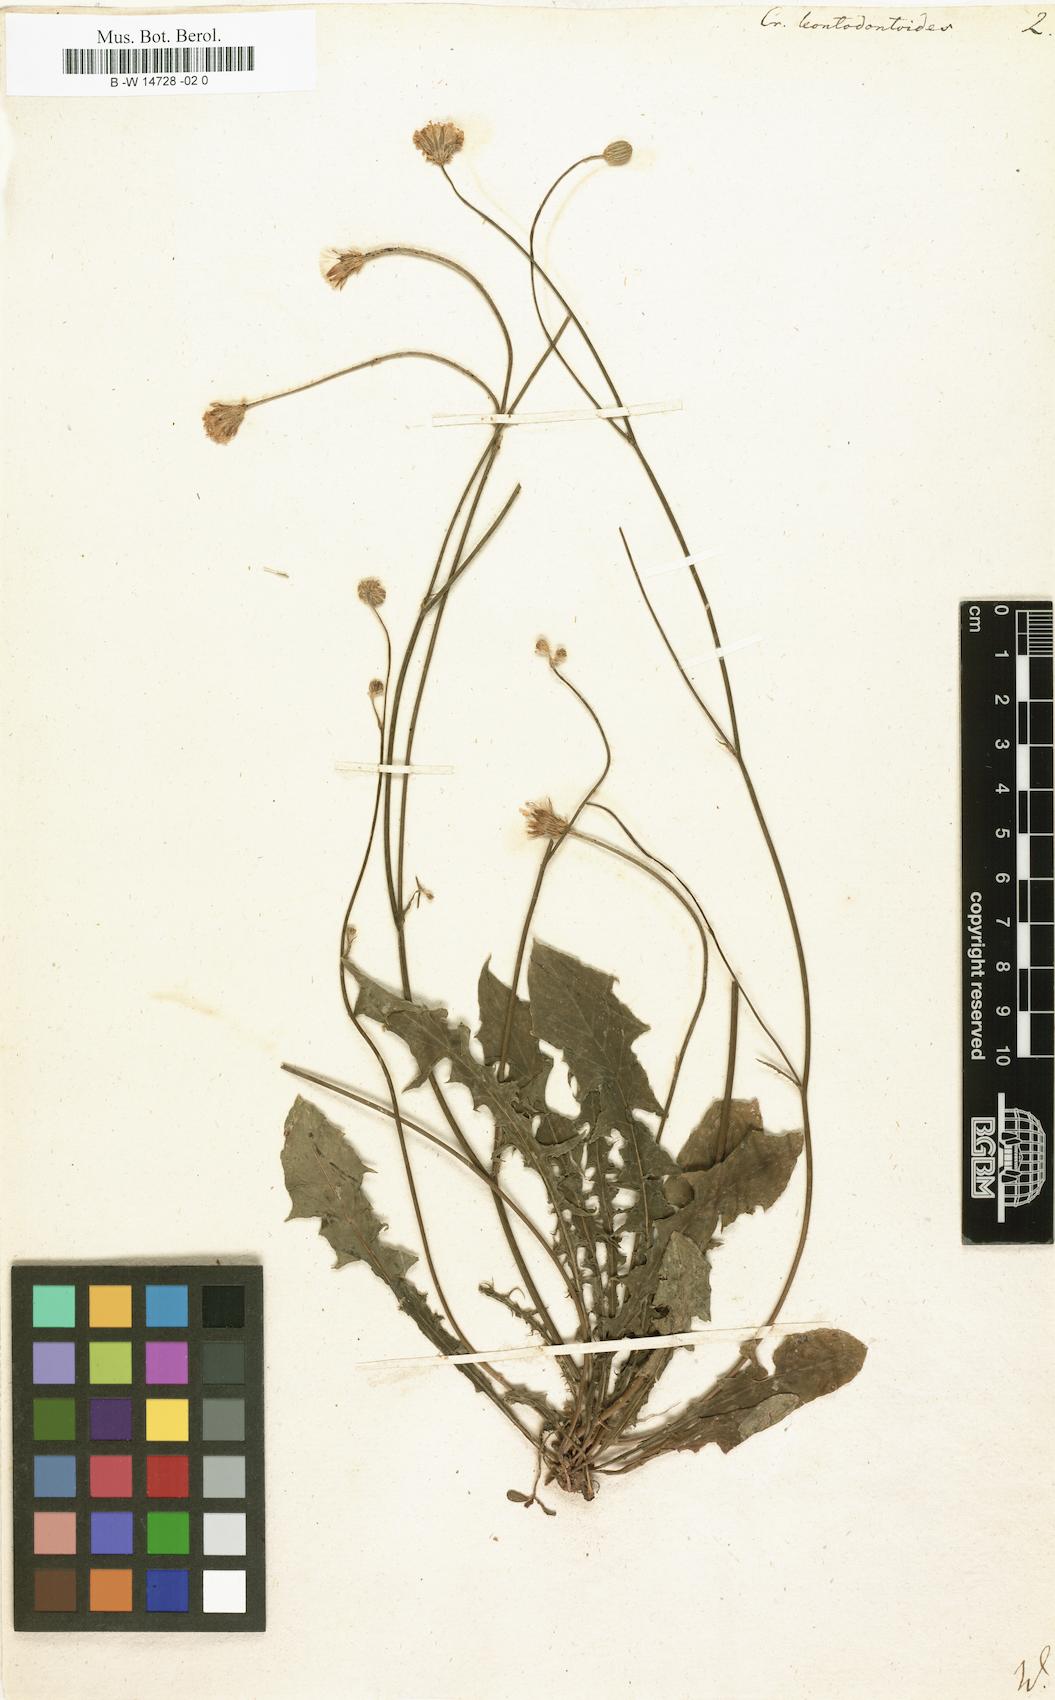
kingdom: Plantae
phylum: Tracheophyta
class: Magnoliopsida
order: Asterales
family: Asteraceae
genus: Crepis
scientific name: Crepis leontodontoides
